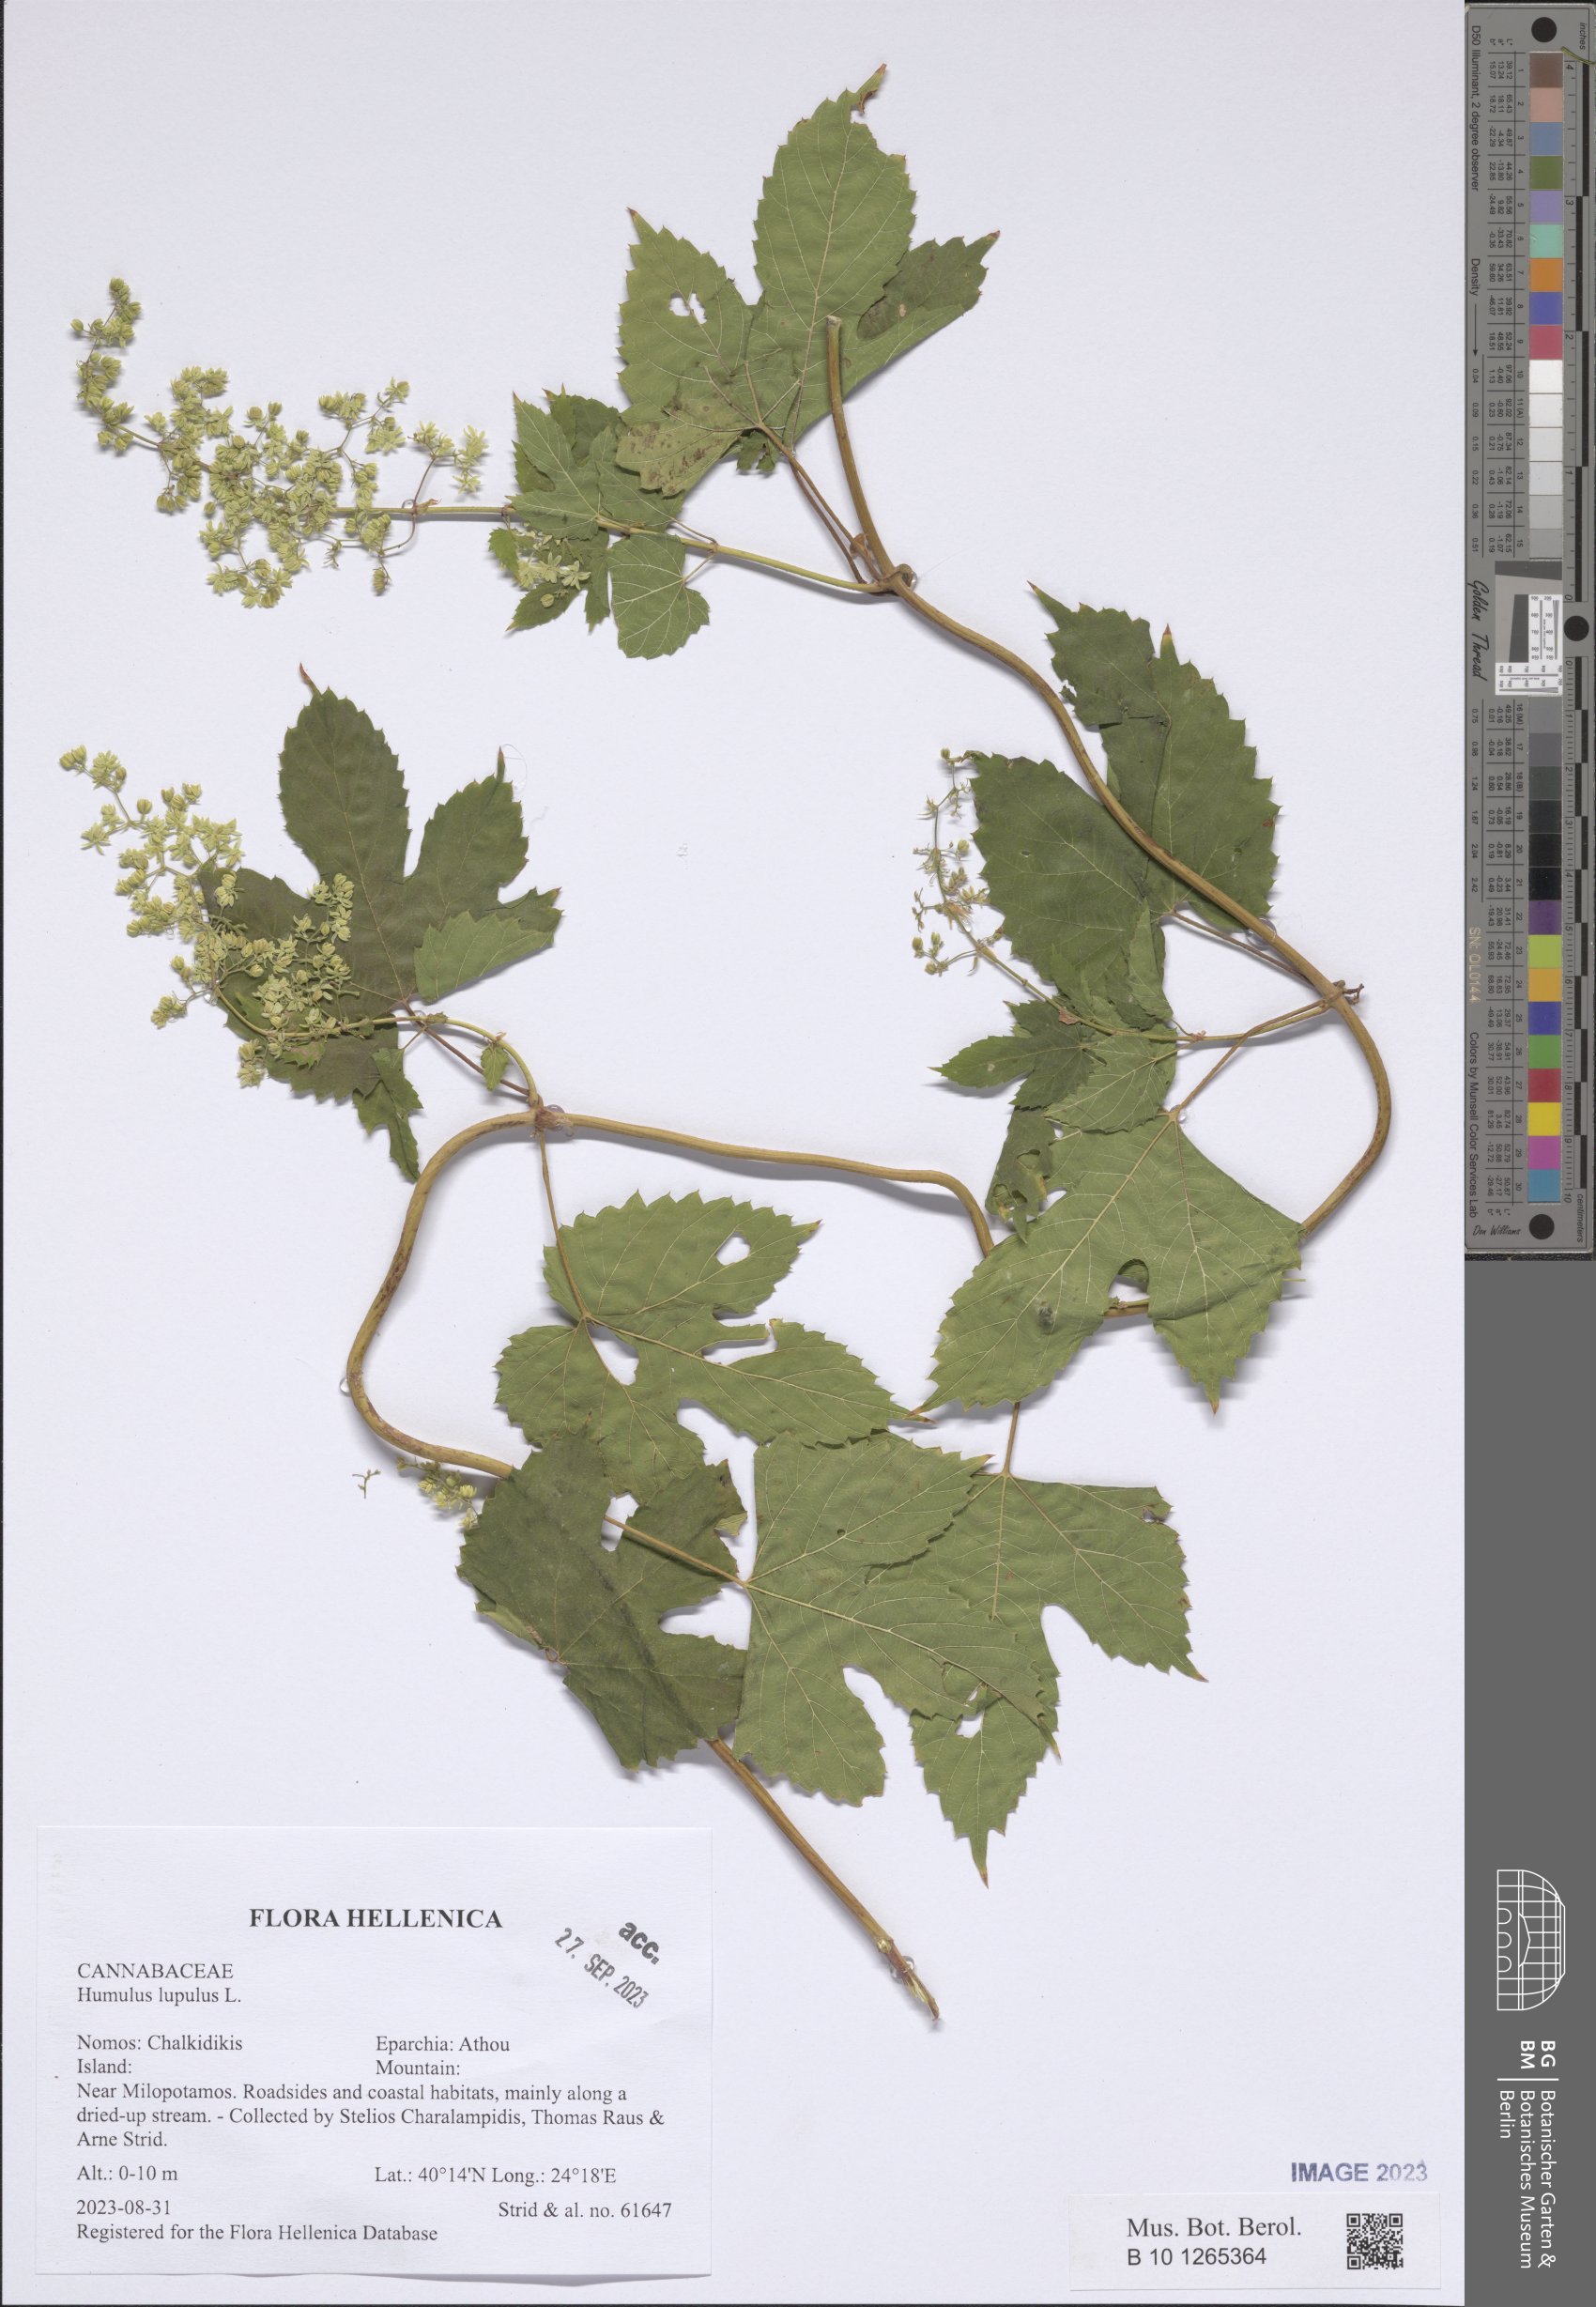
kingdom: Plantae
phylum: Tracheophyta
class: Magnoliopsida
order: Rosales
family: Cannabaceae
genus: Humulus
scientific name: Humulus lupulus
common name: Hop
